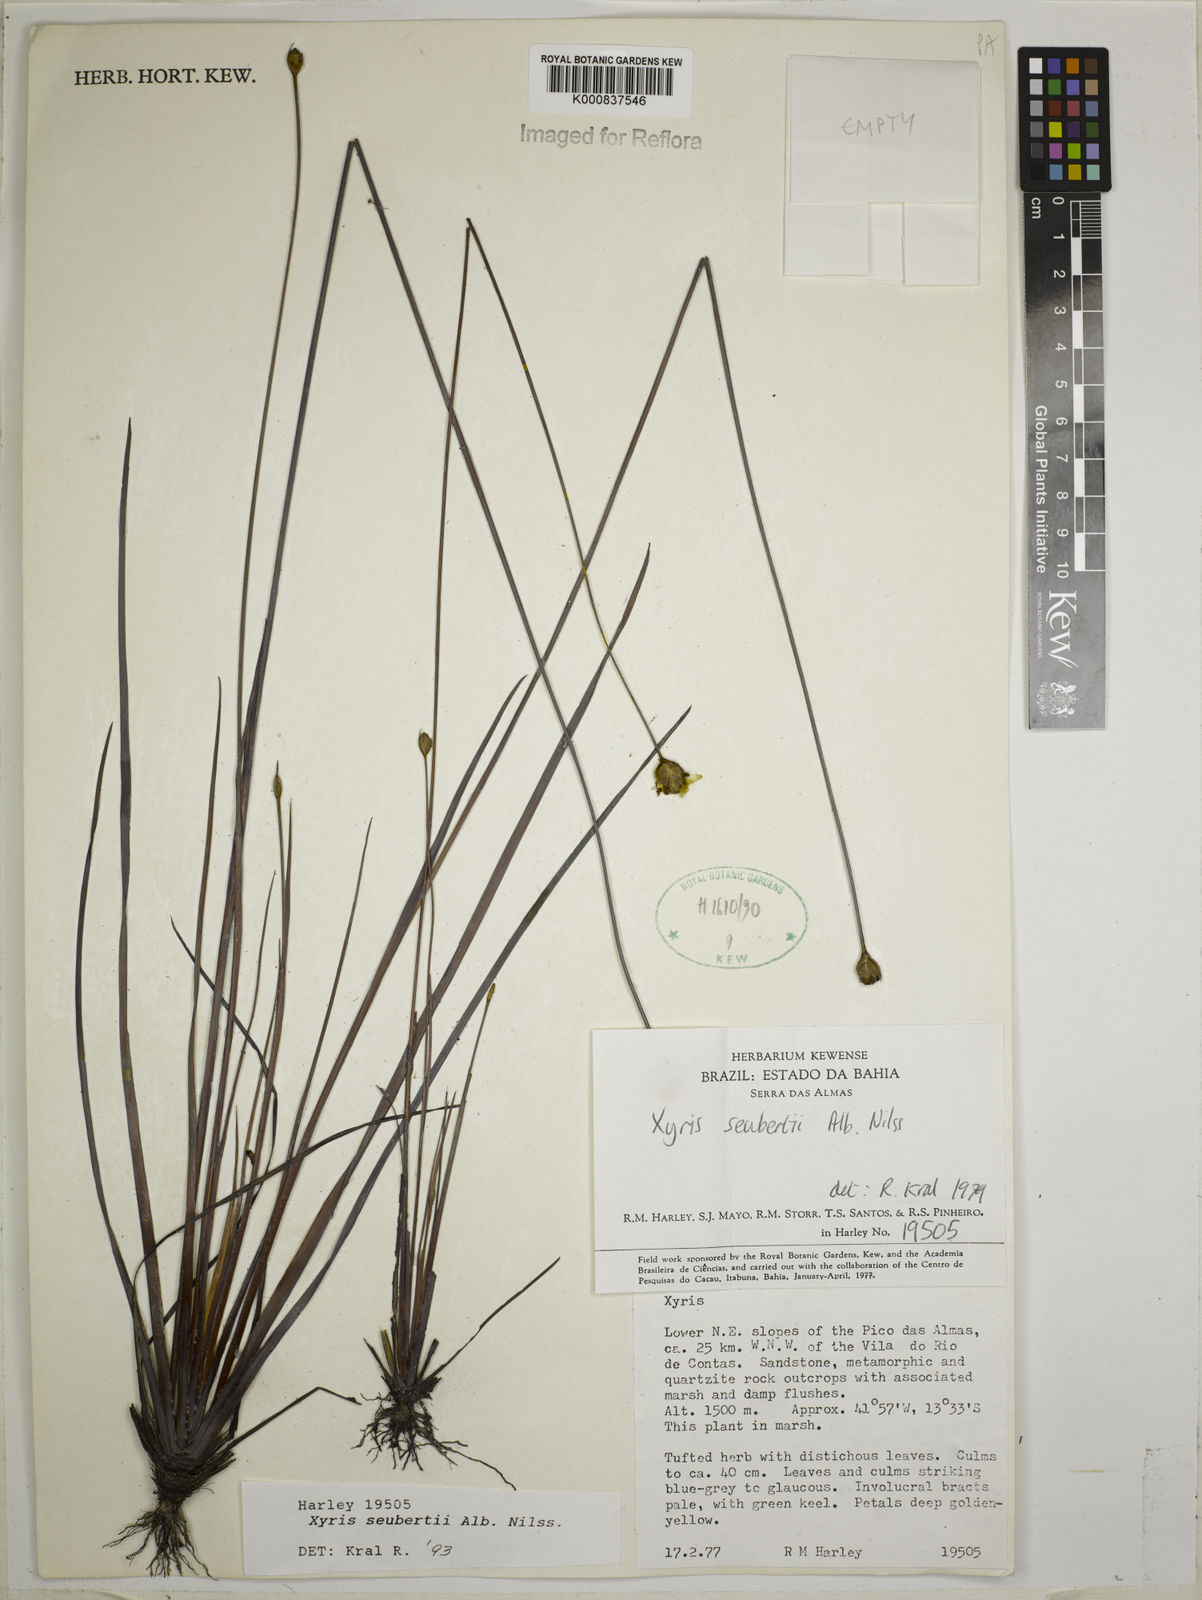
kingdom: Plantae
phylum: Tracheophyta
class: Liliopsida
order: Poales
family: Xyridaceae
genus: Xyris
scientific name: Xyris seubertii
